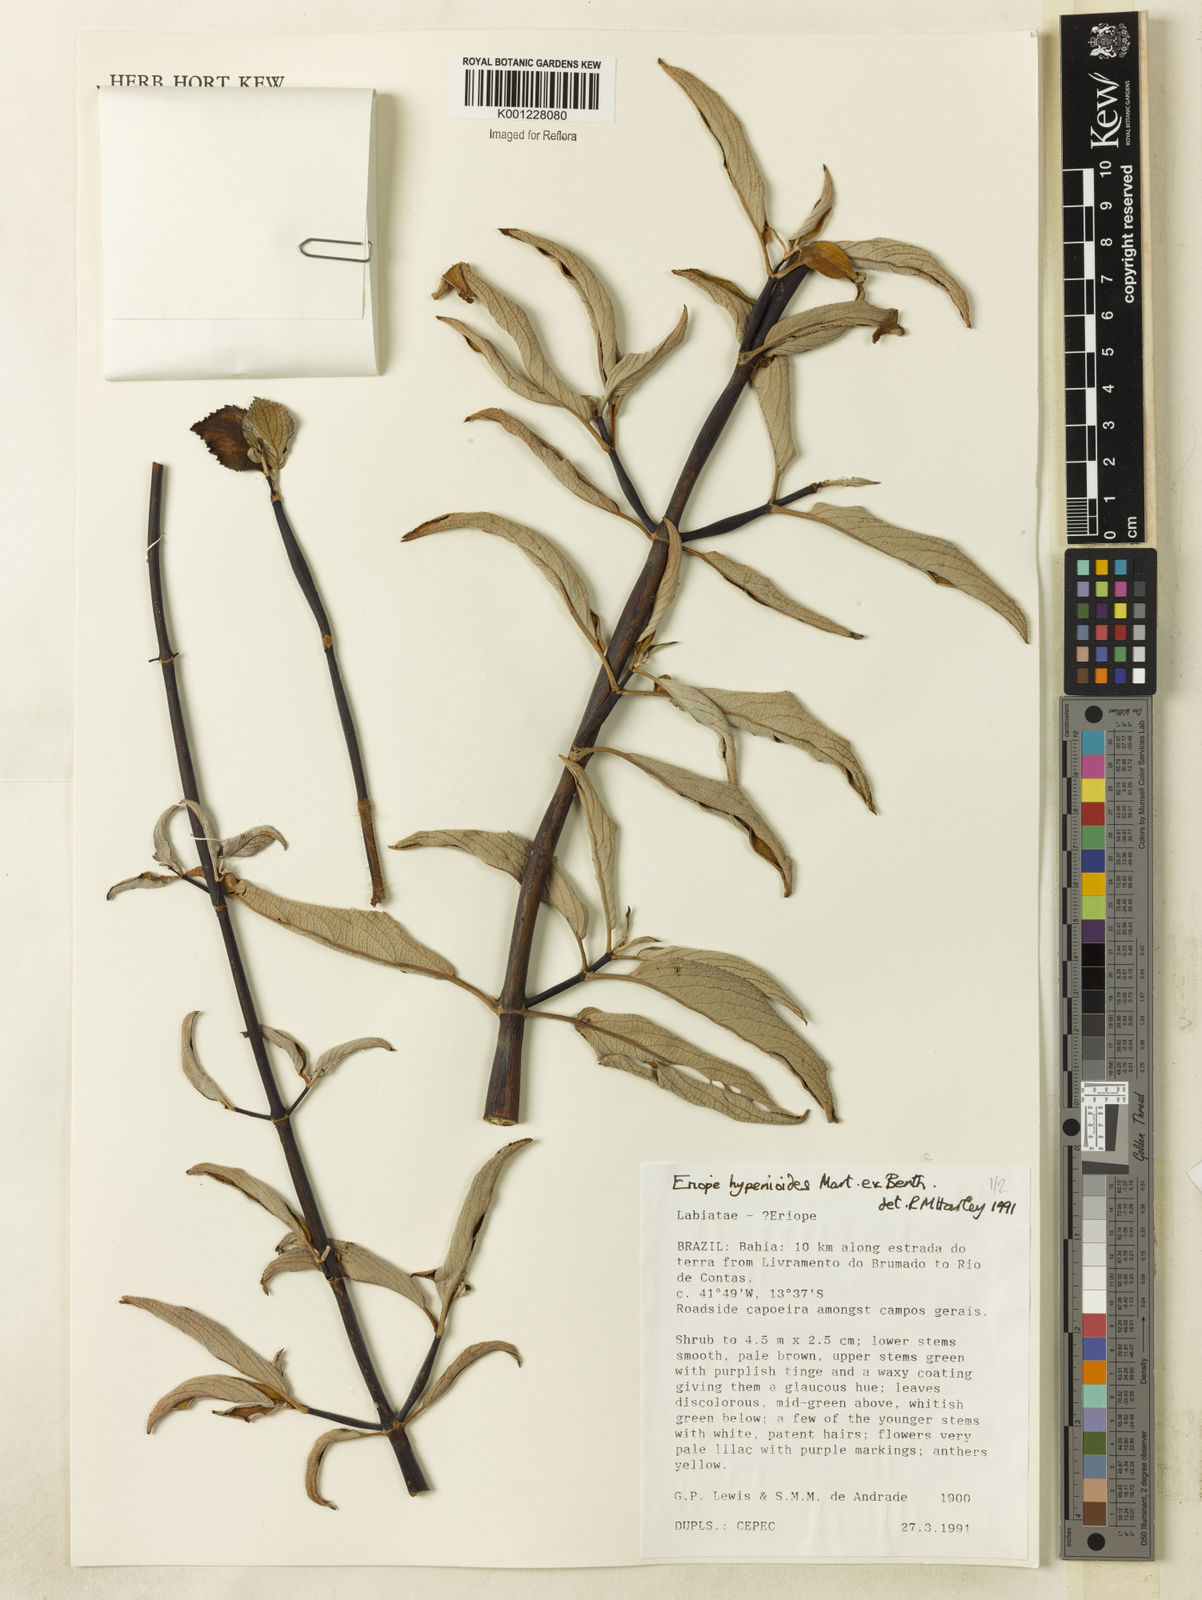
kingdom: Plantae
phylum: Tracheophyta
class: Magnoliopsida
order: Lamiales
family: Lamiaceae
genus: Eriope
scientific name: Eriope hypenioides
